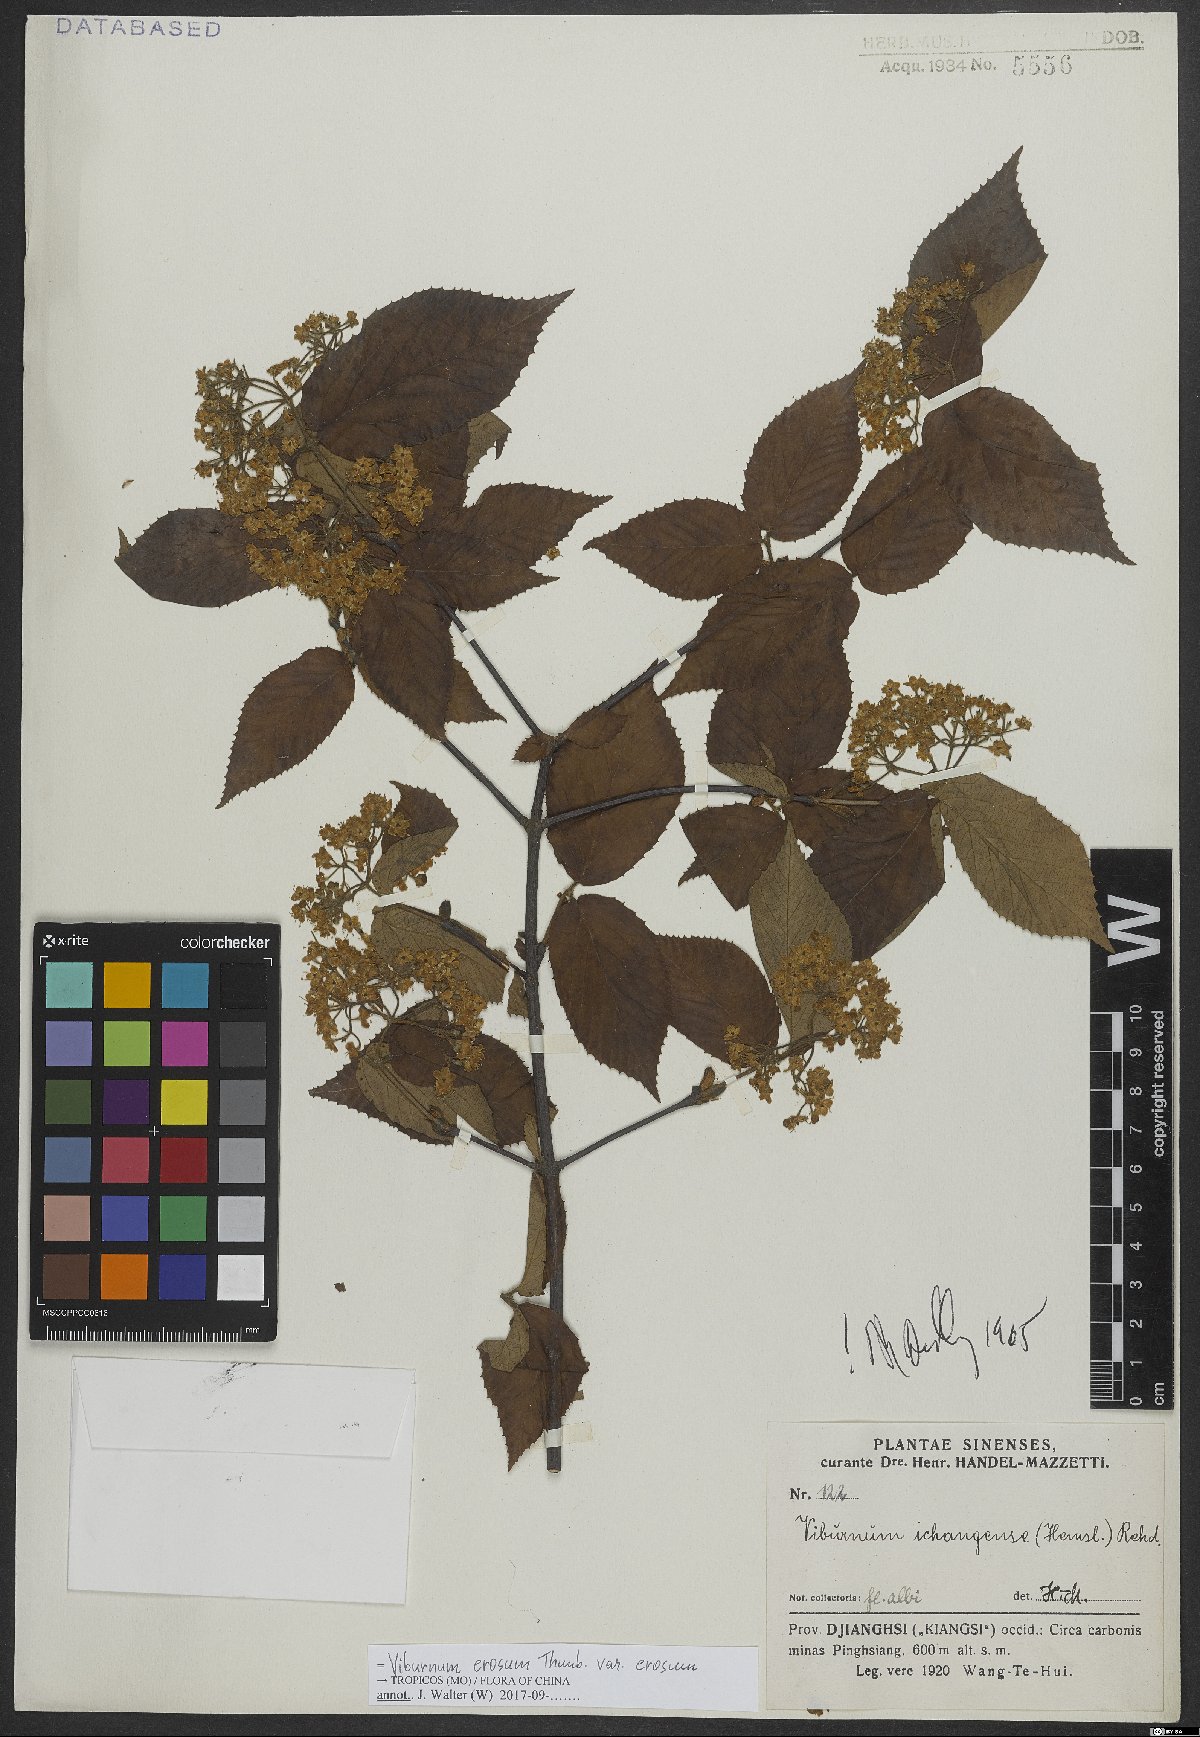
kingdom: Plantae
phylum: Tracheophyta
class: Magnoliopsida
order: Dipsacales
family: Viburnaceae
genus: Viburnum
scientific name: Viburnum erosum
